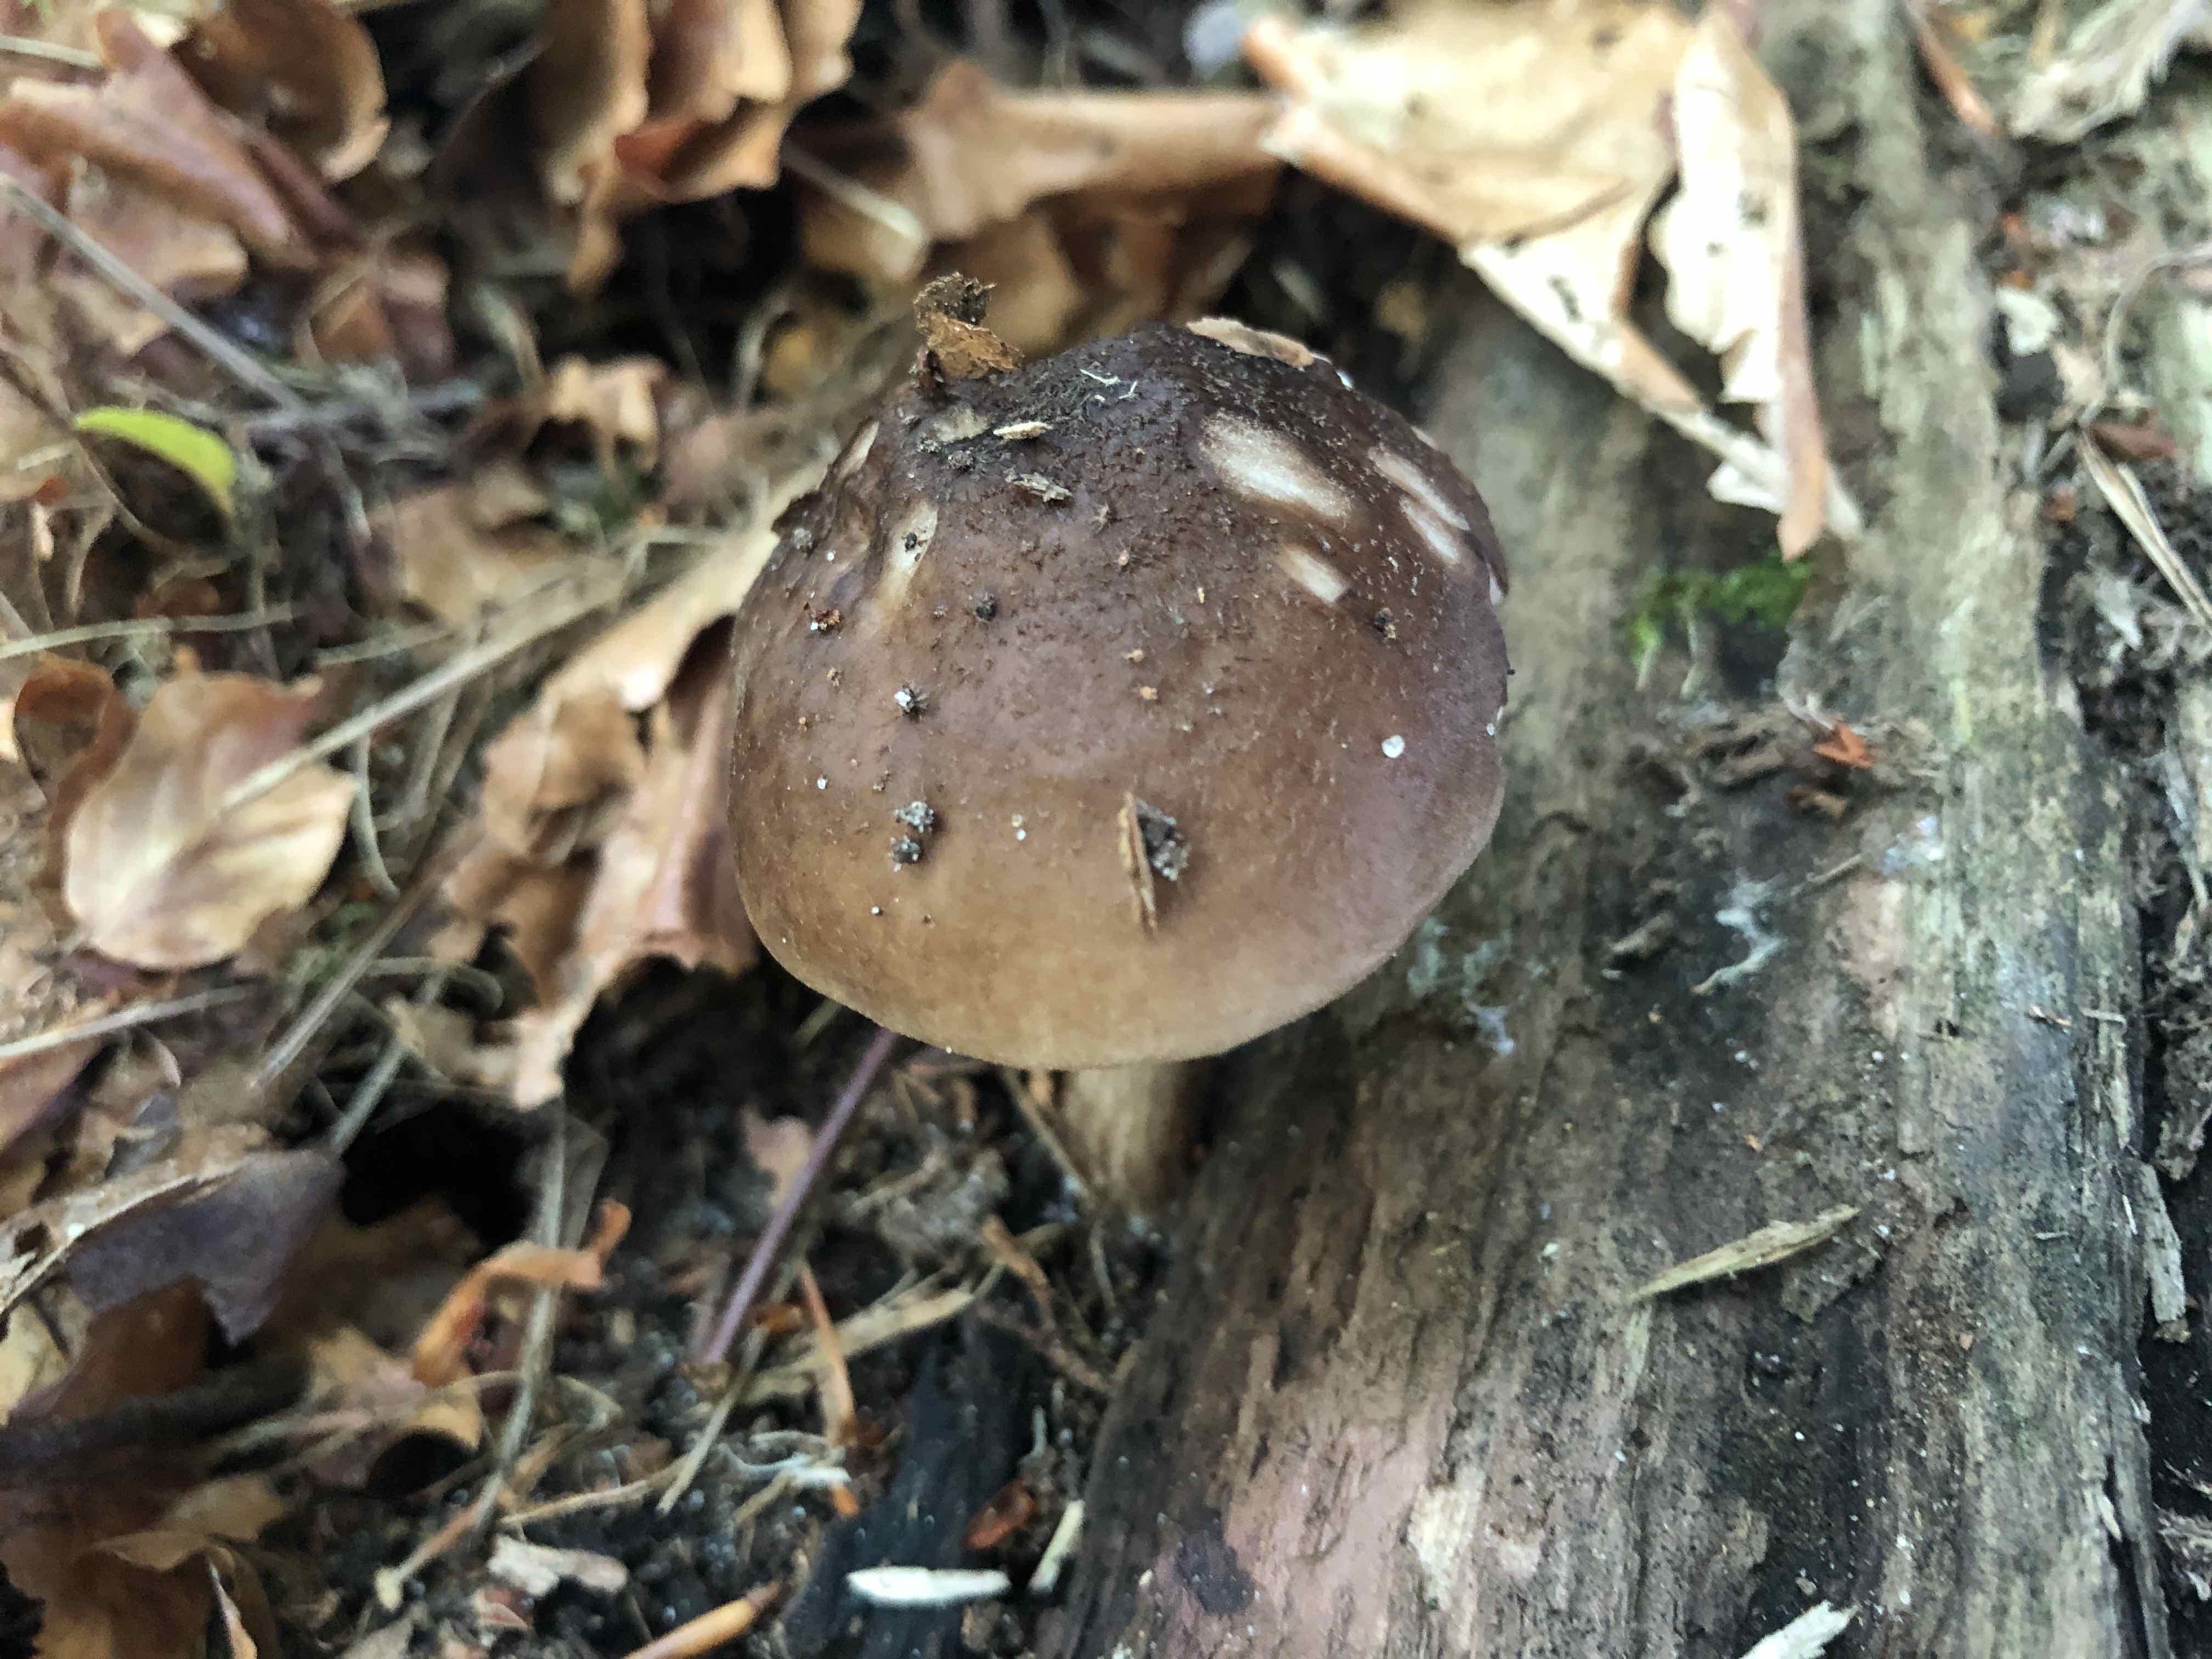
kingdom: Fungi
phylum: Basidiomycota
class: Agaricomycetes
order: Agaricales
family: Pluteaceae
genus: Pluteus
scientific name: Pluteus cervinus
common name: sodfarvet skærmhat
